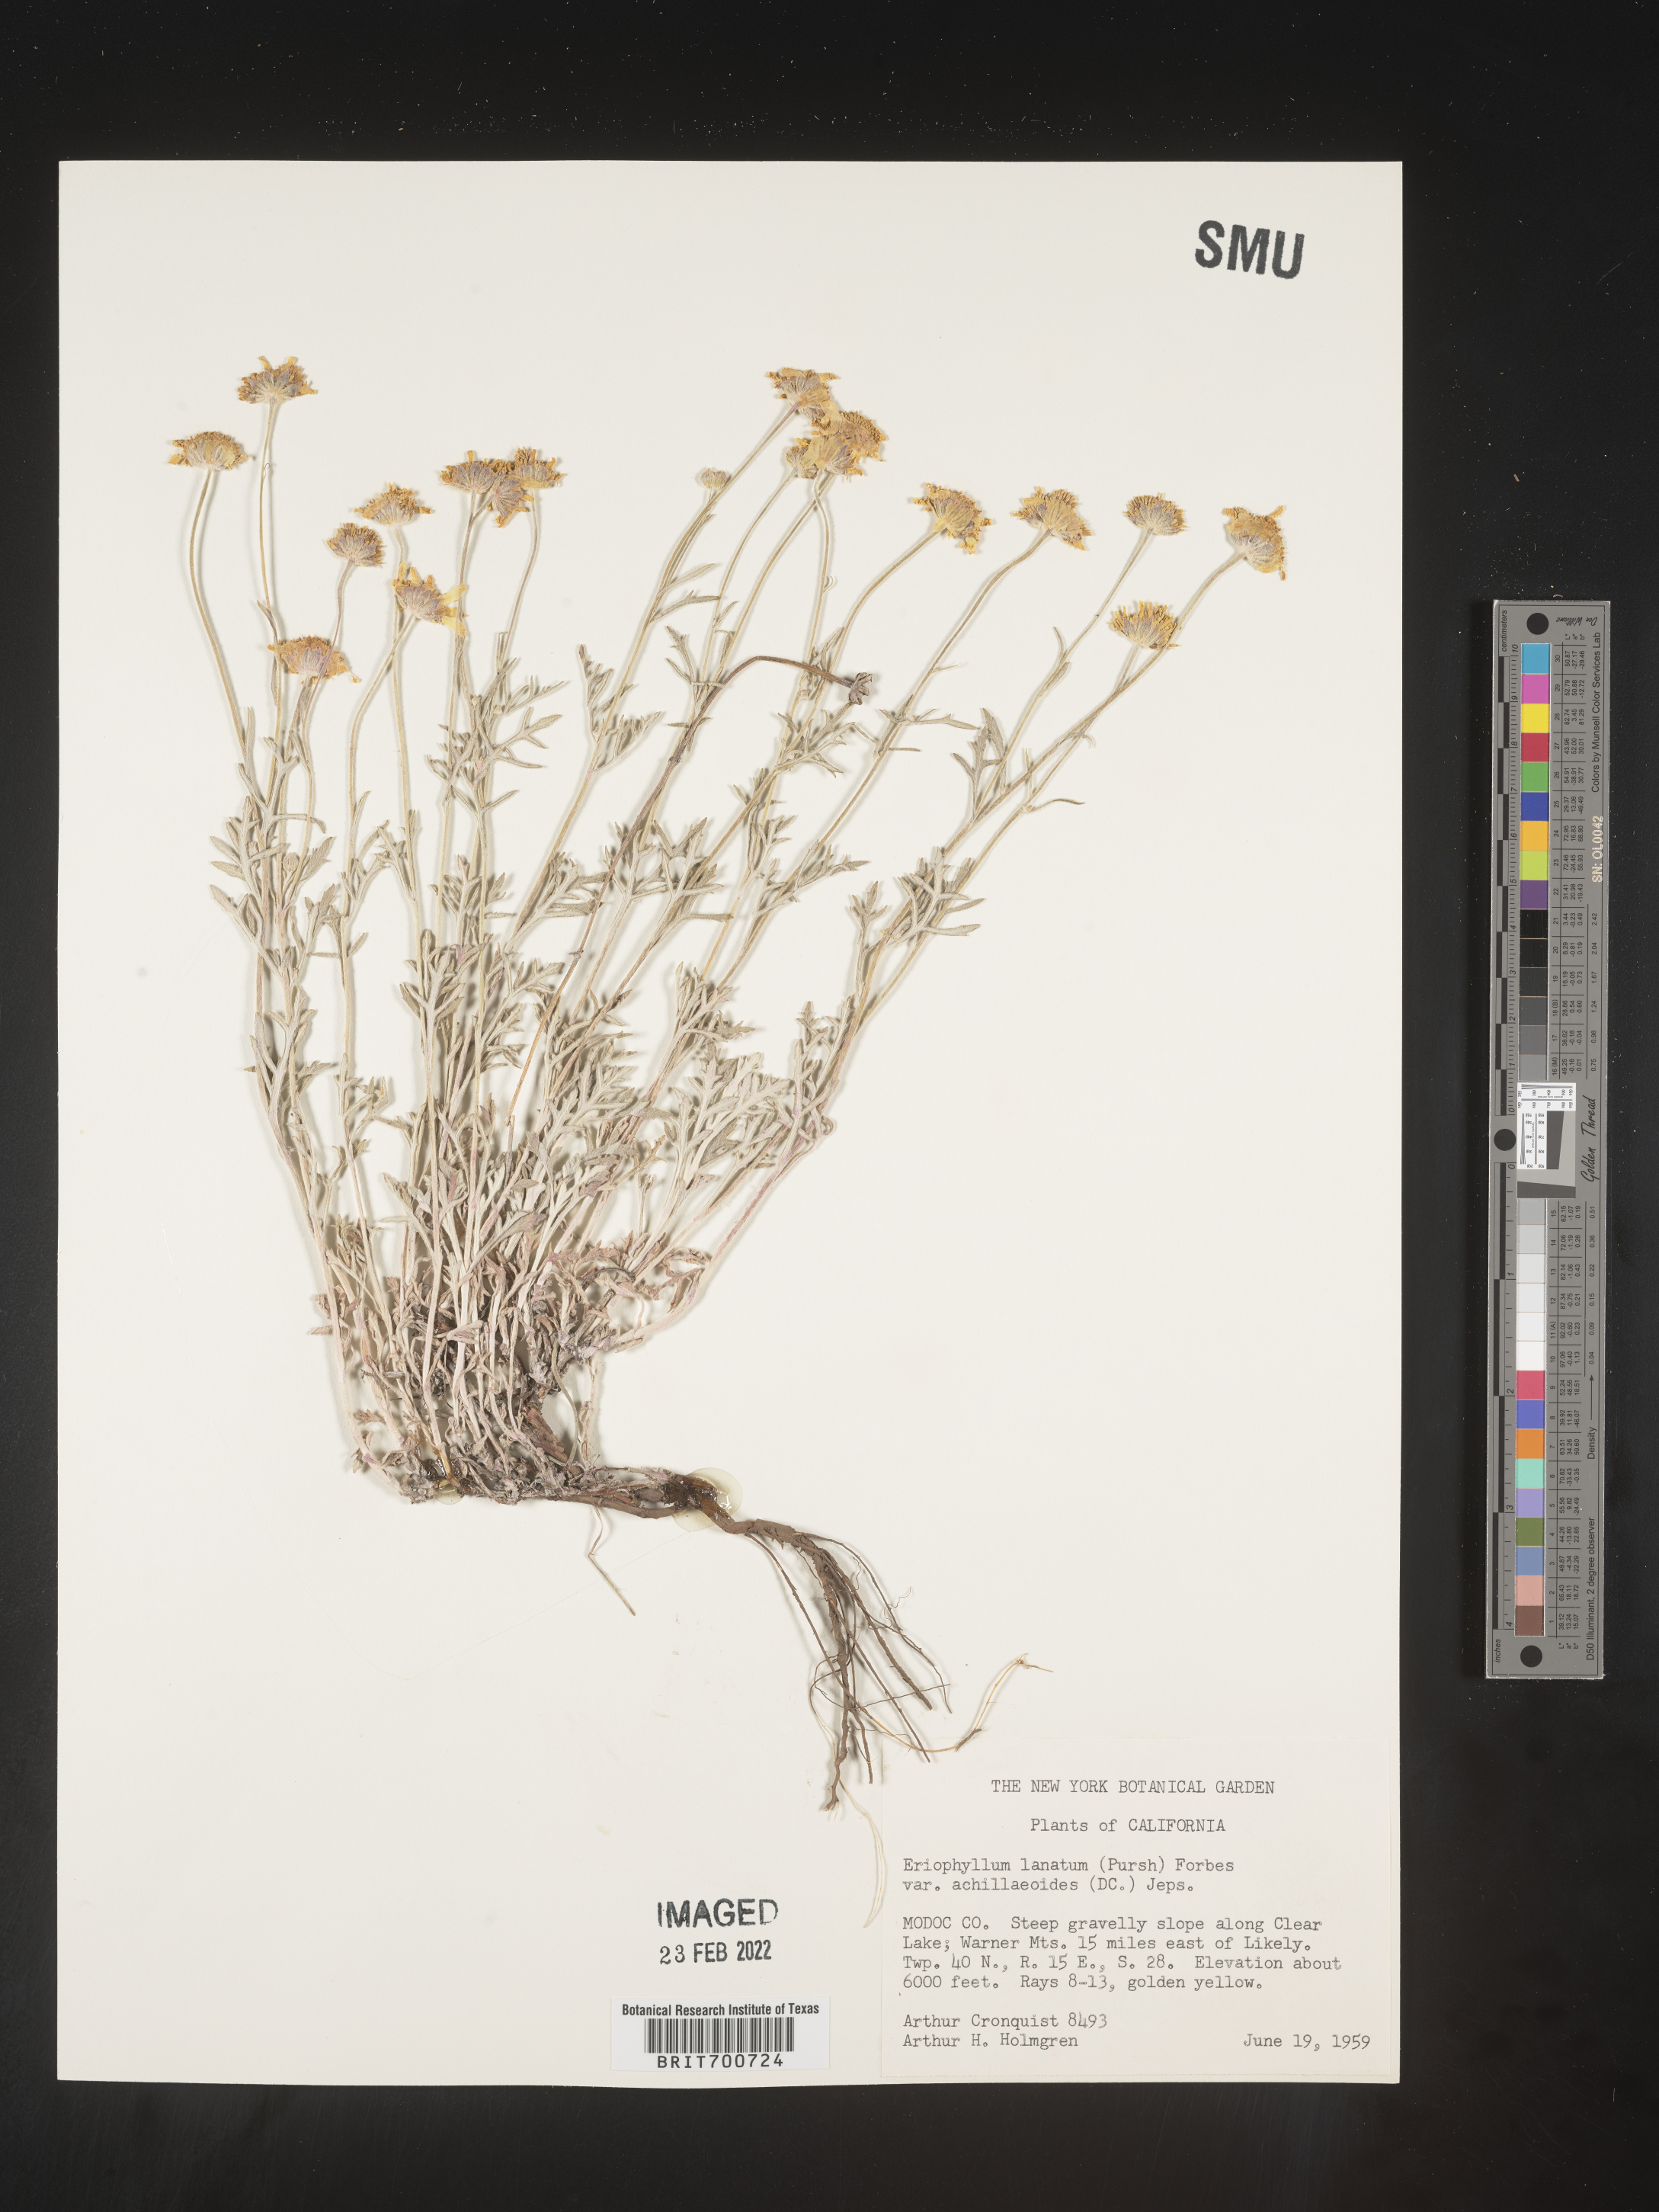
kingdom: Plantae
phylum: Tracheophyta
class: Magnoliopsida
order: Asterales
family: Asteraceae
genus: Eriophyllum
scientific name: Eriophyllum lanatum
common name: Common woolly-sunflower
